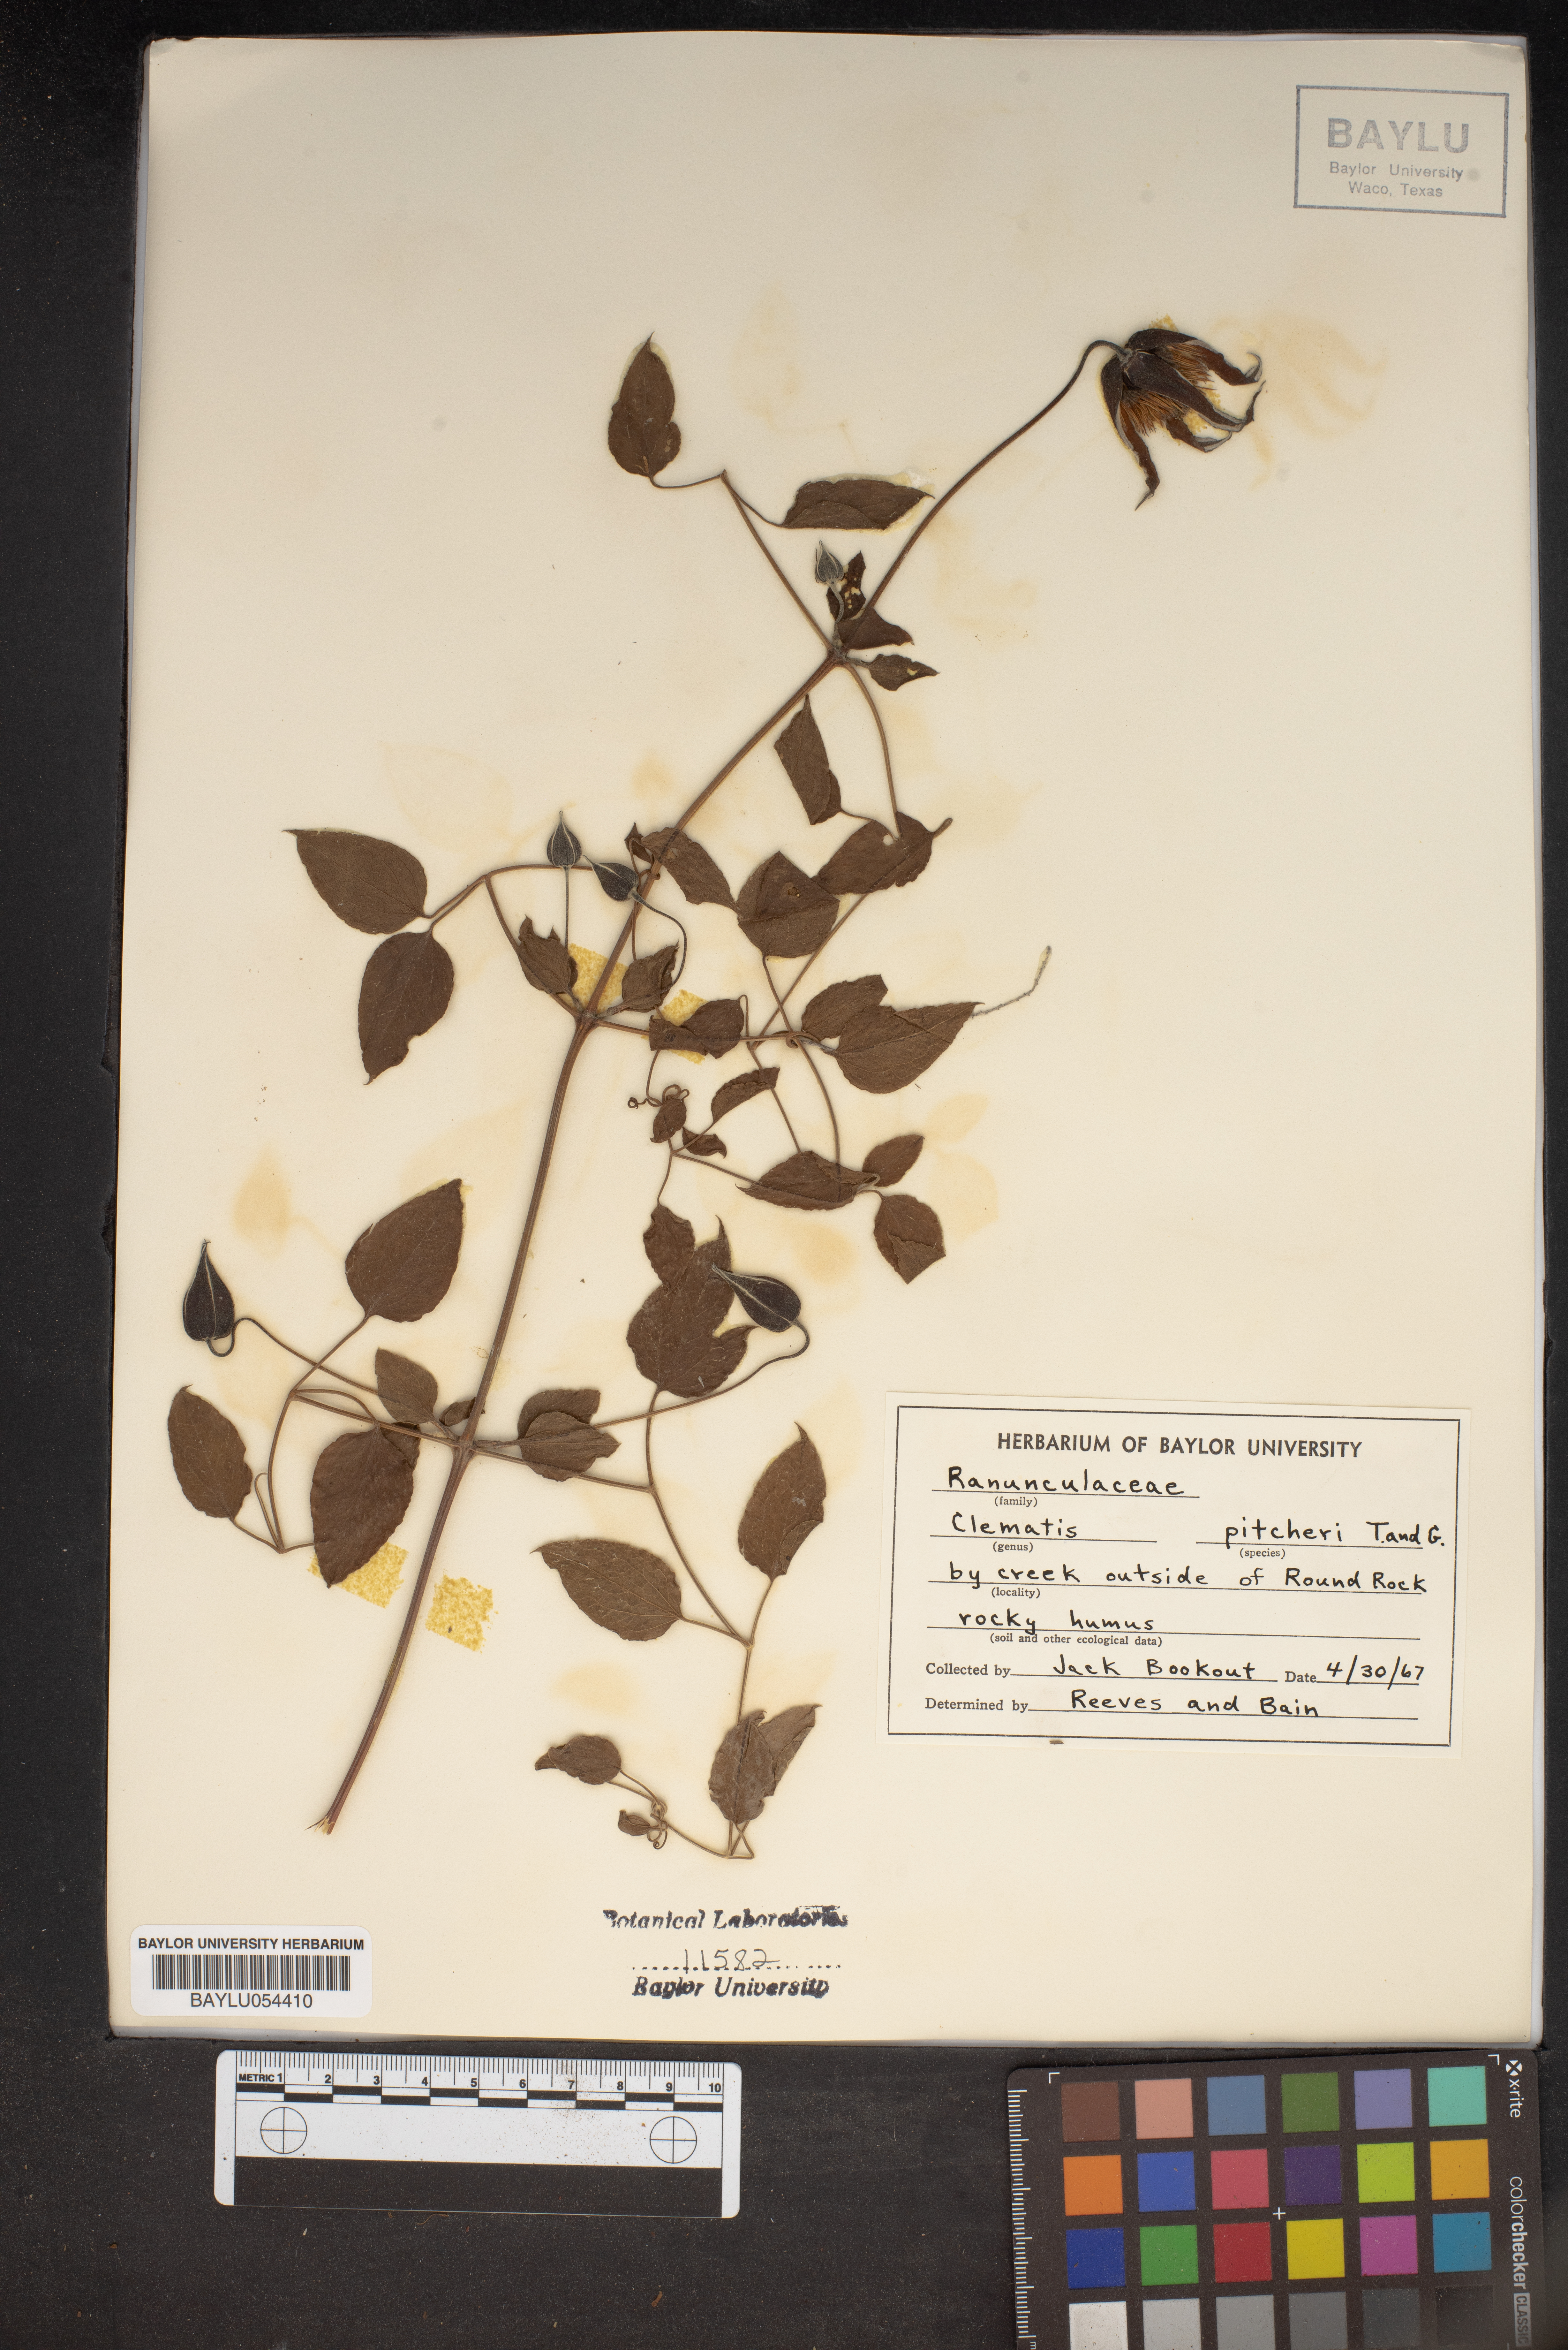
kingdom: Plantae
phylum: Tracheophyta
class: Magnoliopsida
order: Ranunculales
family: Ranunculaceae
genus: Clematis
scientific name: Clematis pitcheri
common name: Bellflower clematis
